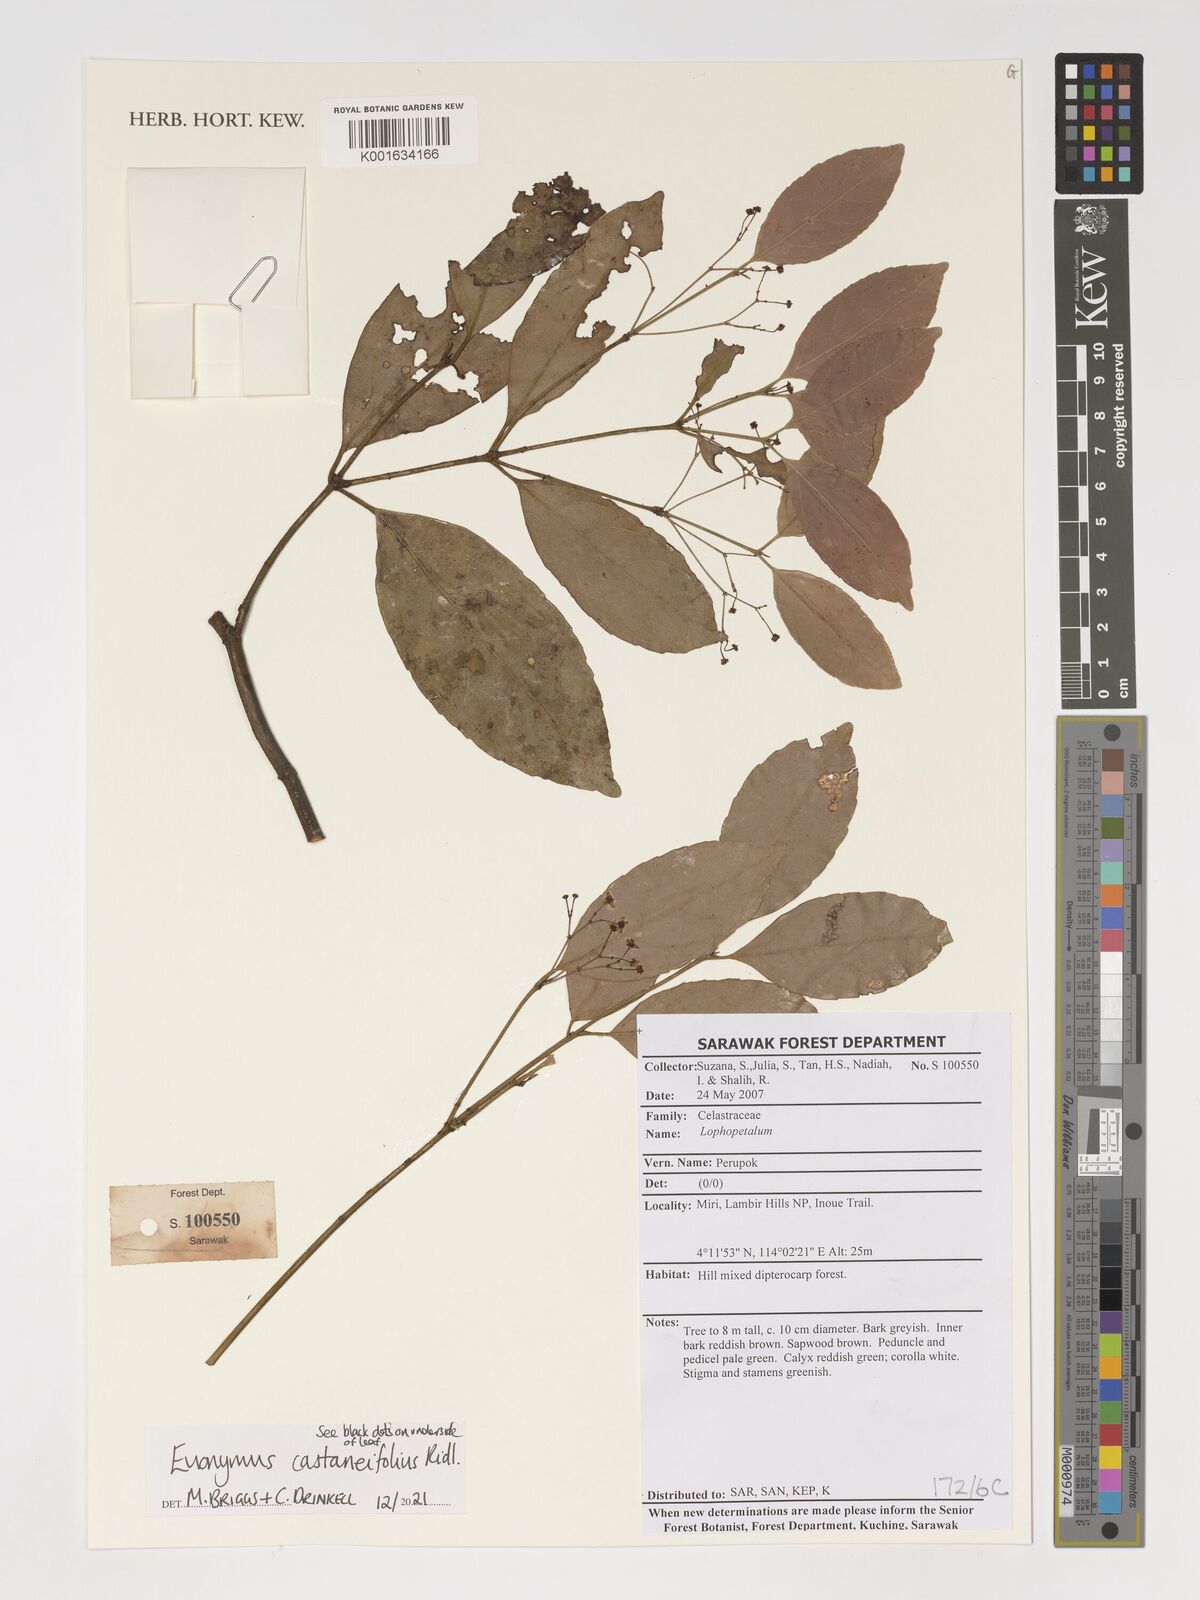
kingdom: Plantae
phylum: Tracheophyta
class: Magnoliopsida
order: Celastrales
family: Celastraceae
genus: Euonymus
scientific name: Euonymus castaneifolius
